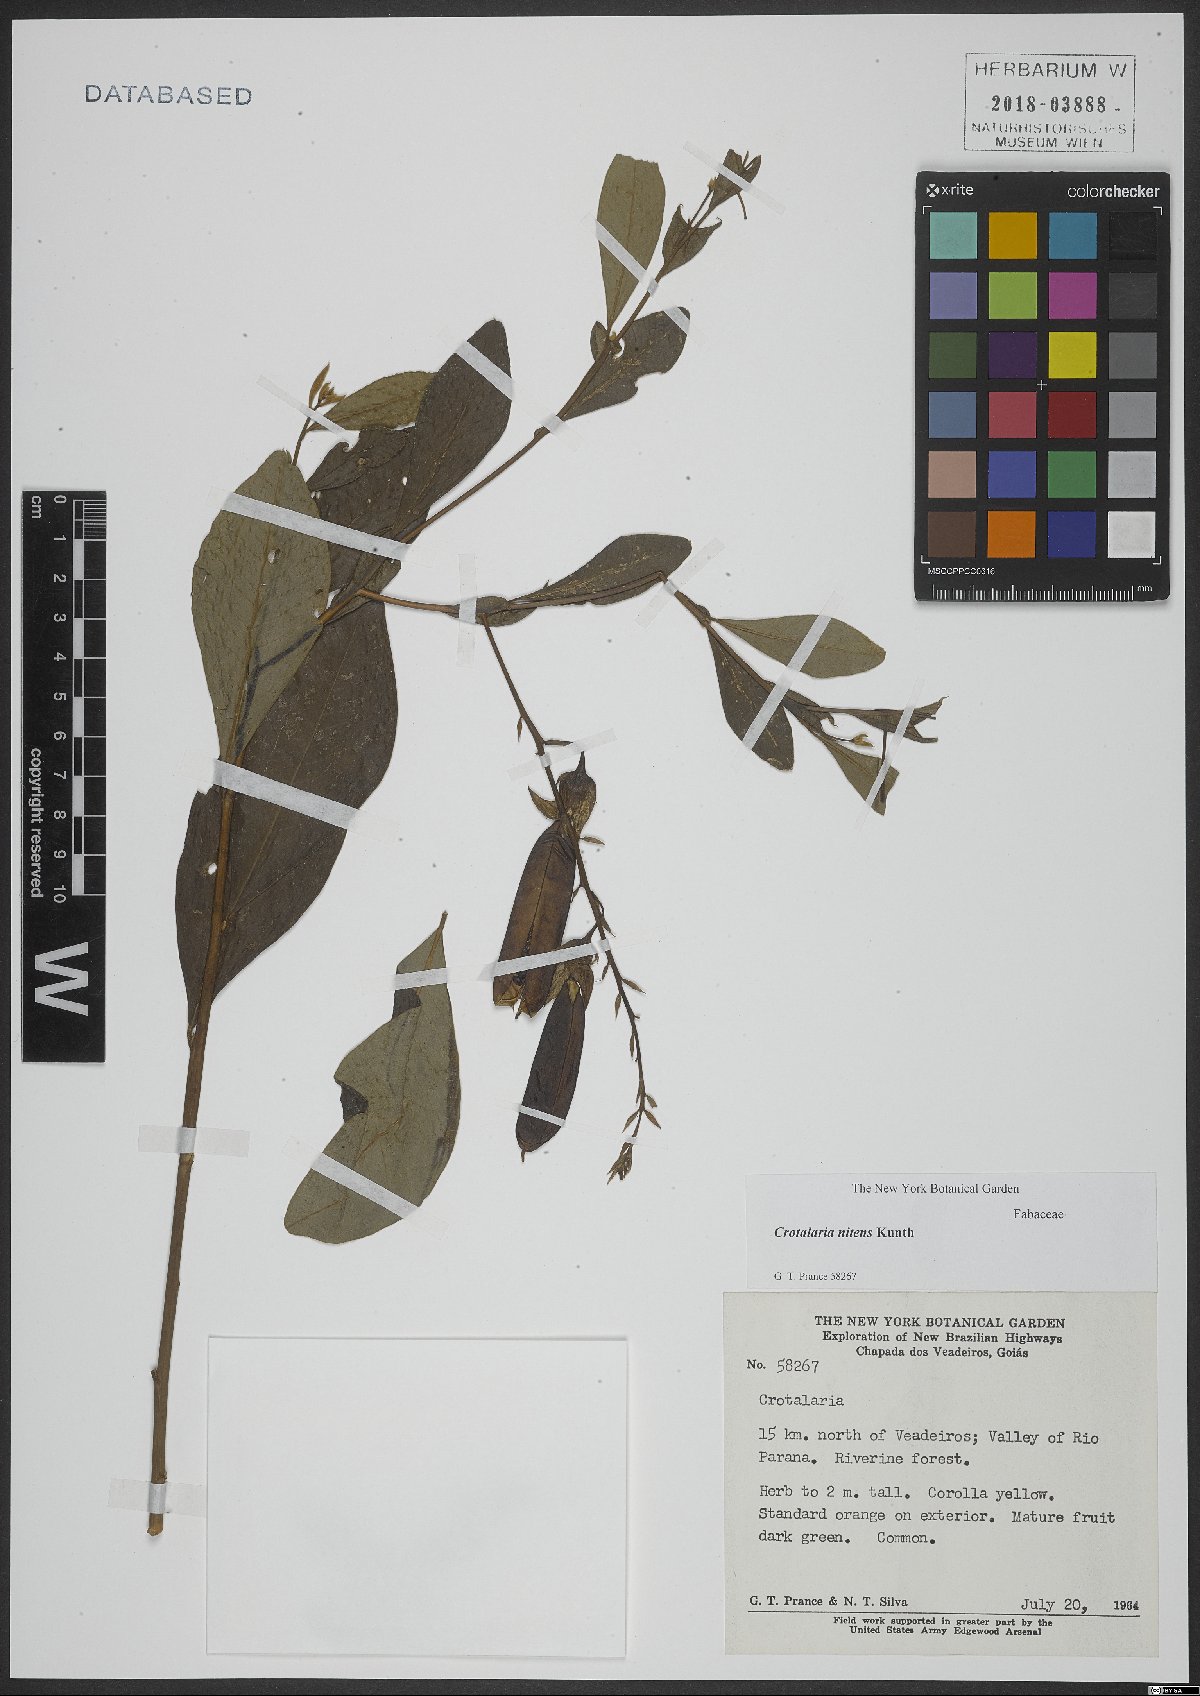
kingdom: Plantae
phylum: Tracheophyta
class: Magnoliopsida
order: Fabales
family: Fabaceae
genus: Crotalaria
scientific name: Crotalaria nitens
